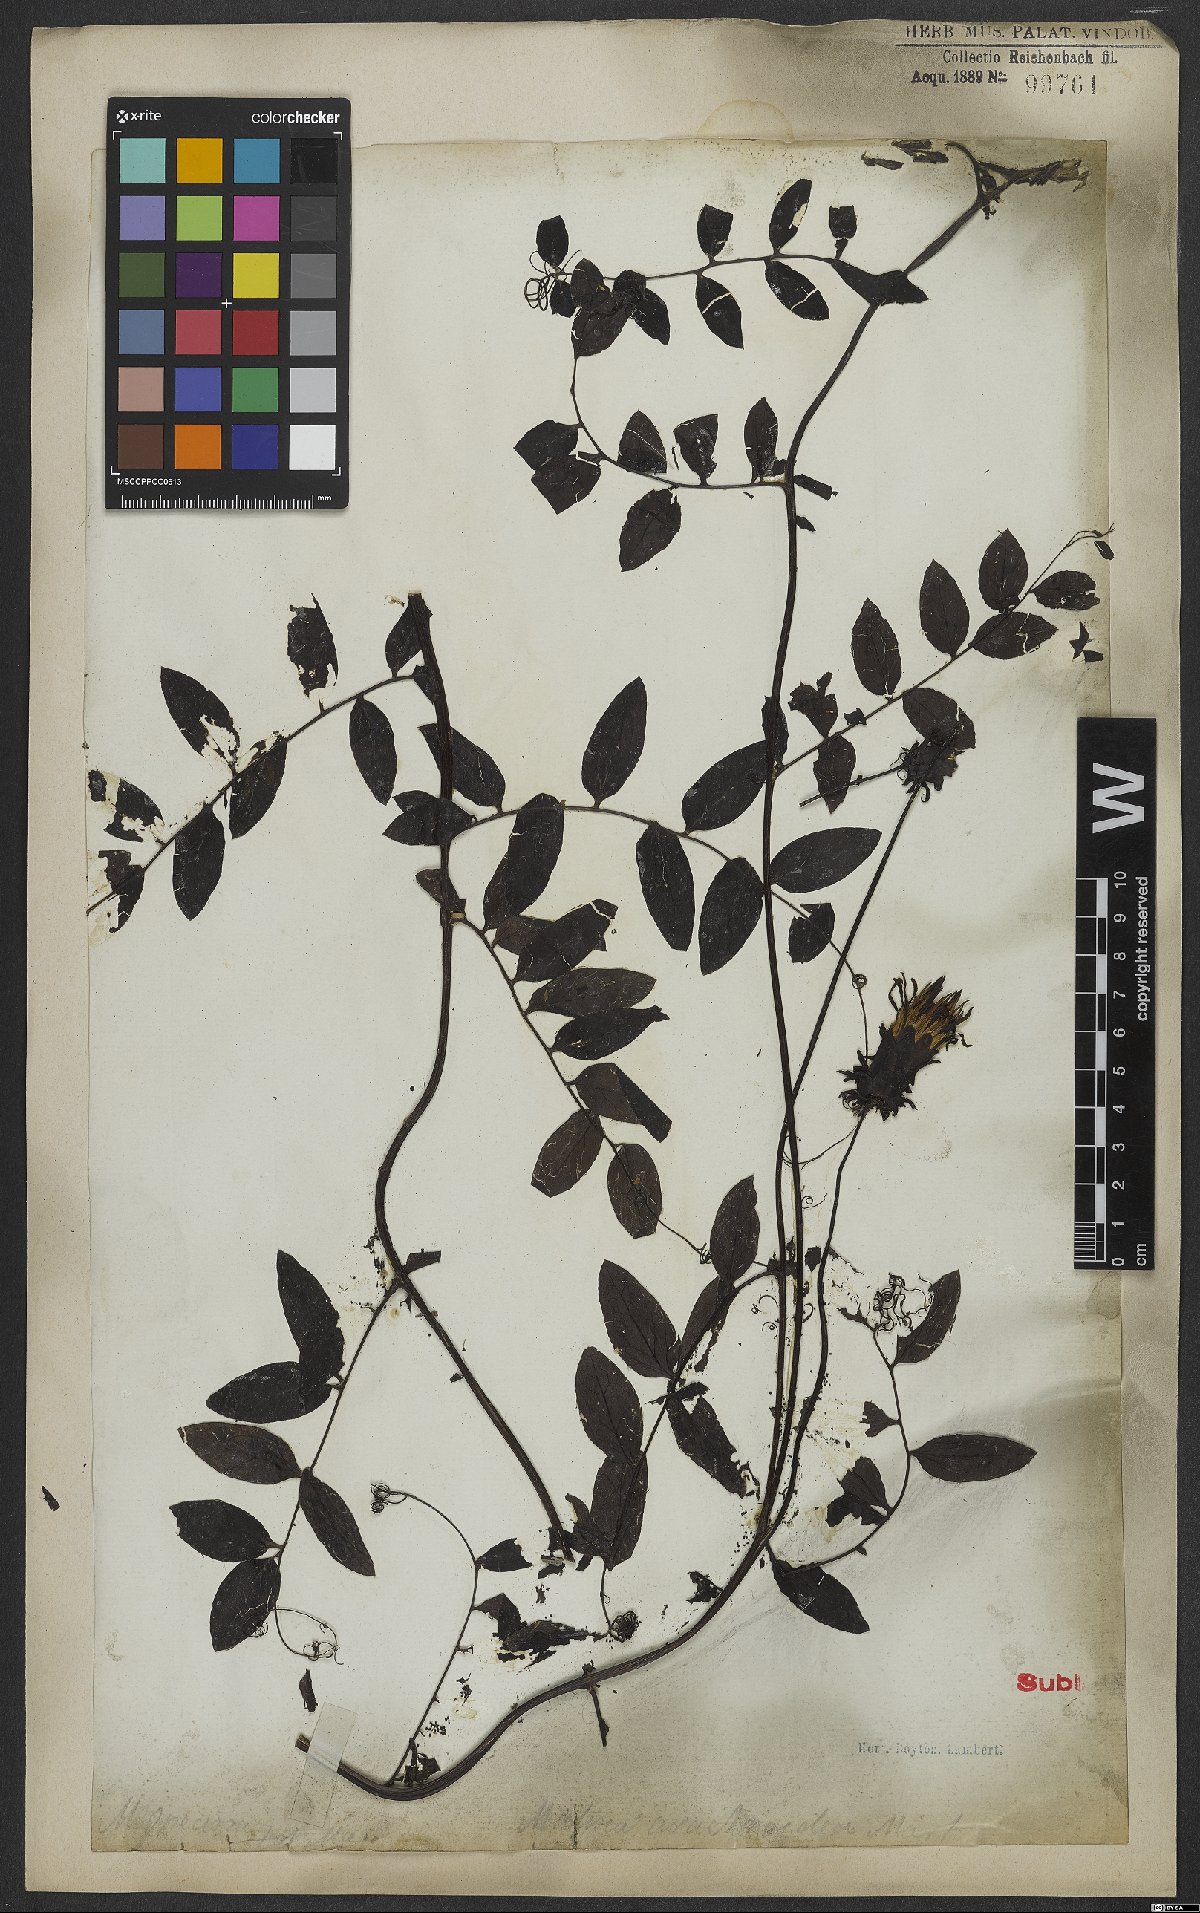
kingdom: Plantae
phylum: Tracheophyta
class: Magnoliopsida
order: Asterales
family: Asteraceae
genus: Mutisia
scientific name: Mutisia speciosa
